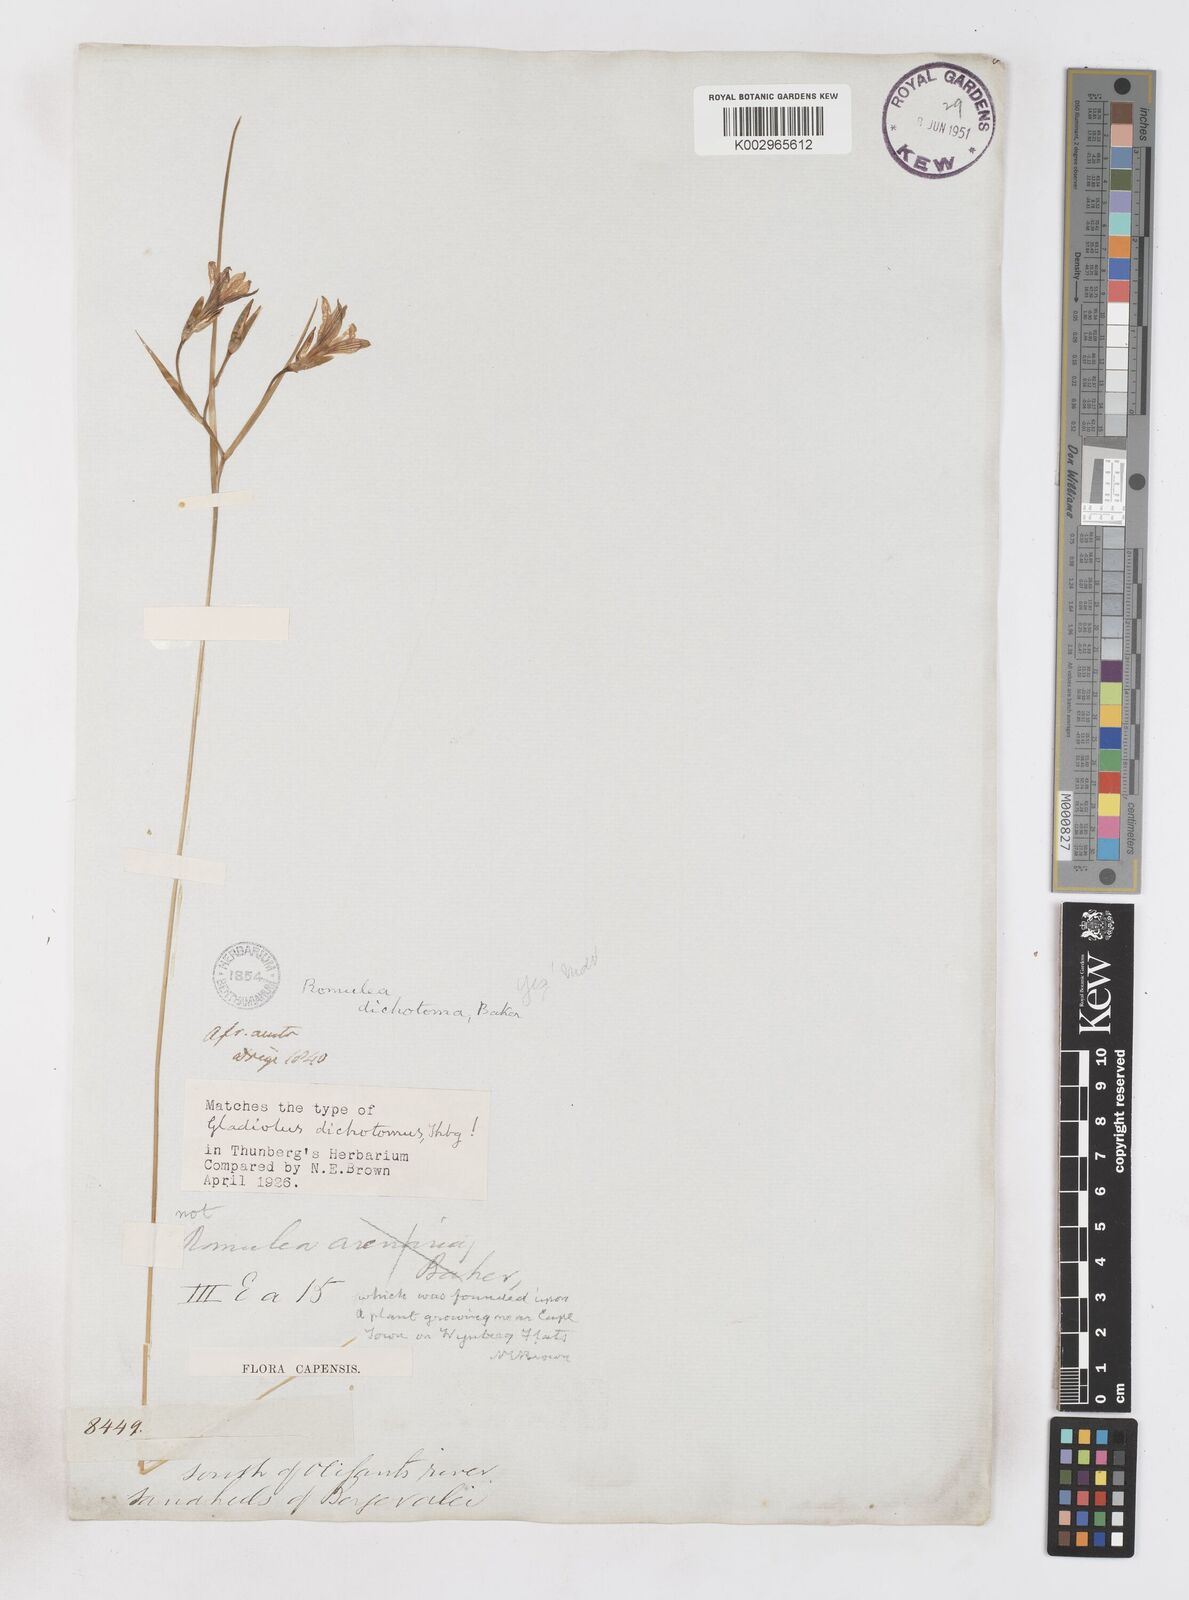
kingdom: Plantae
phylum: Tracheophyta
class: Liliopsida
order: Asparagales
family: Iridaceae
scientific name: Iridaceae
